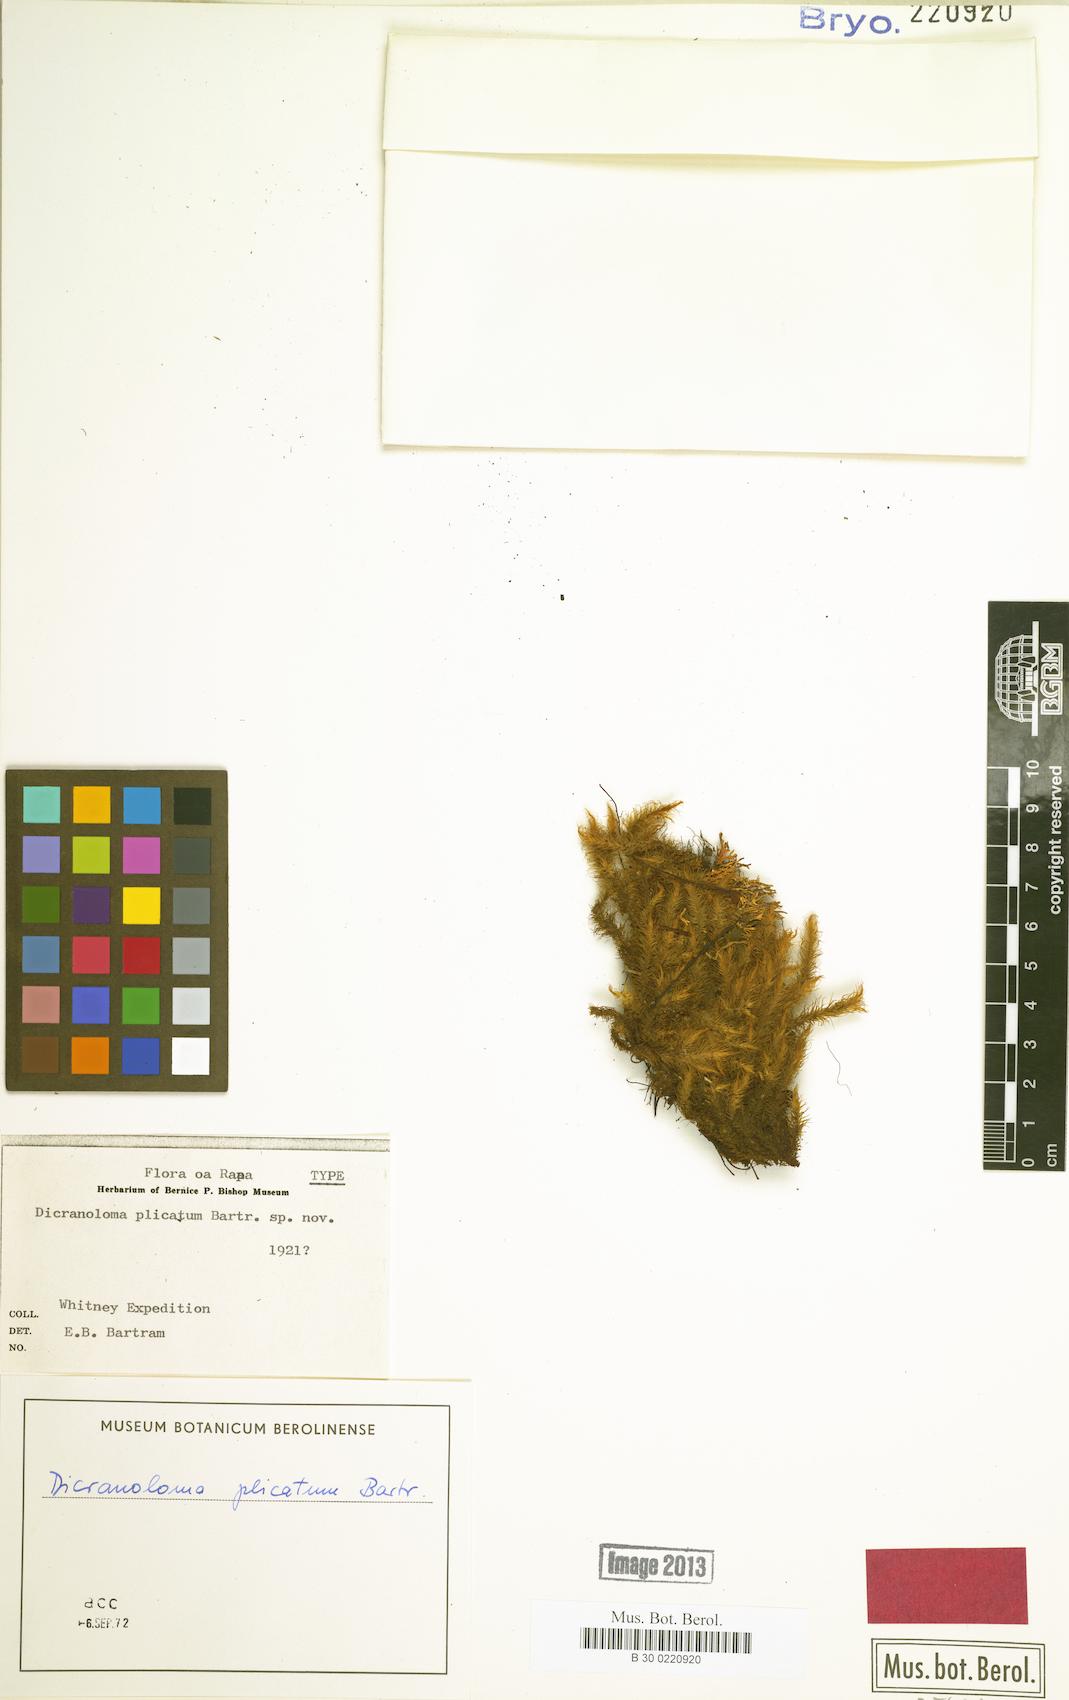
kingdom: Plantae
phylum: Bryophyta
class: Bryopsida
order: Dicranales
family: Dicranaceae
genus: Dicranoloma
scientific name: Dicranoloma plicatum
